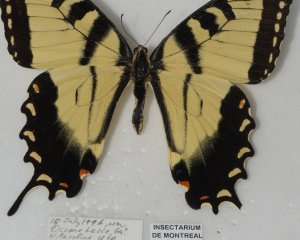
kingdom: Animalia
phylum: Arthropoda
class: Insecta
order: Lepidoptera
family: Papilionidae
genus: Pterourus
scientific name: Pterourus glaucus
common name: Eastern Tiger Swallowtail
